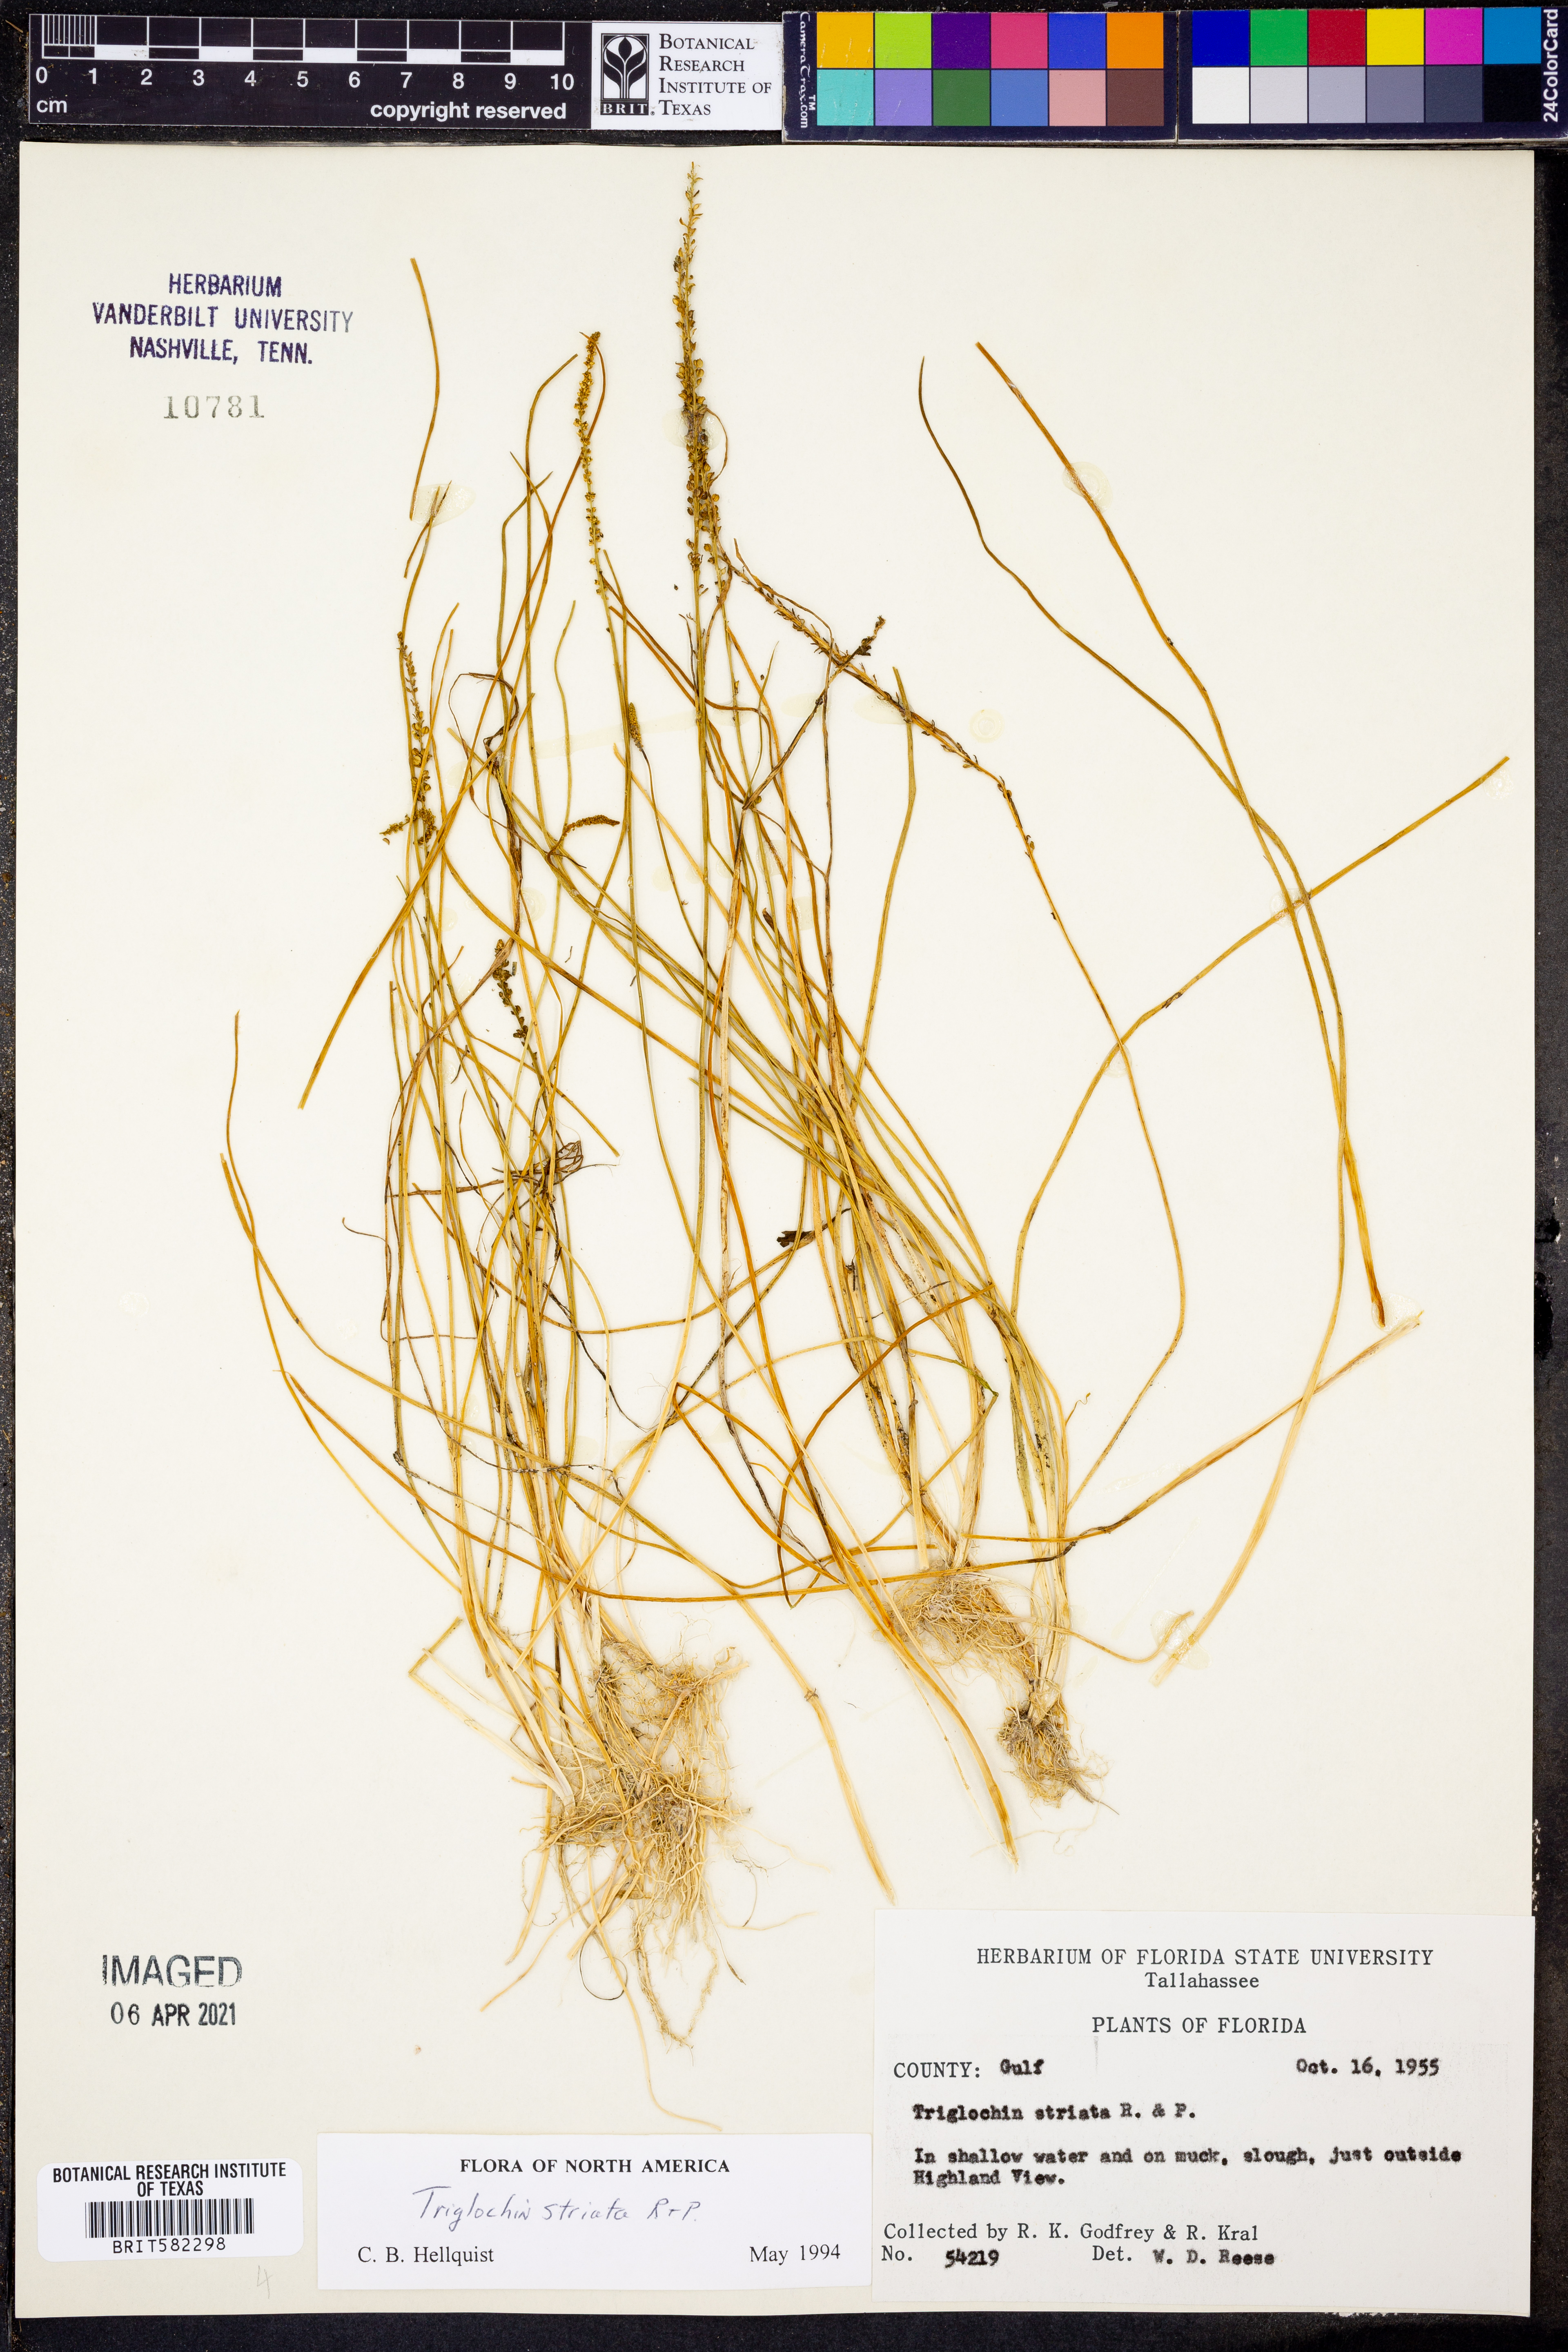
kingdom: Plantae
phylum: Tracheophyta
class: Liliopsida
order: Alismatales
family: Juncaginaceae
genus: Triglochin
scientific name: Triglochin striata
